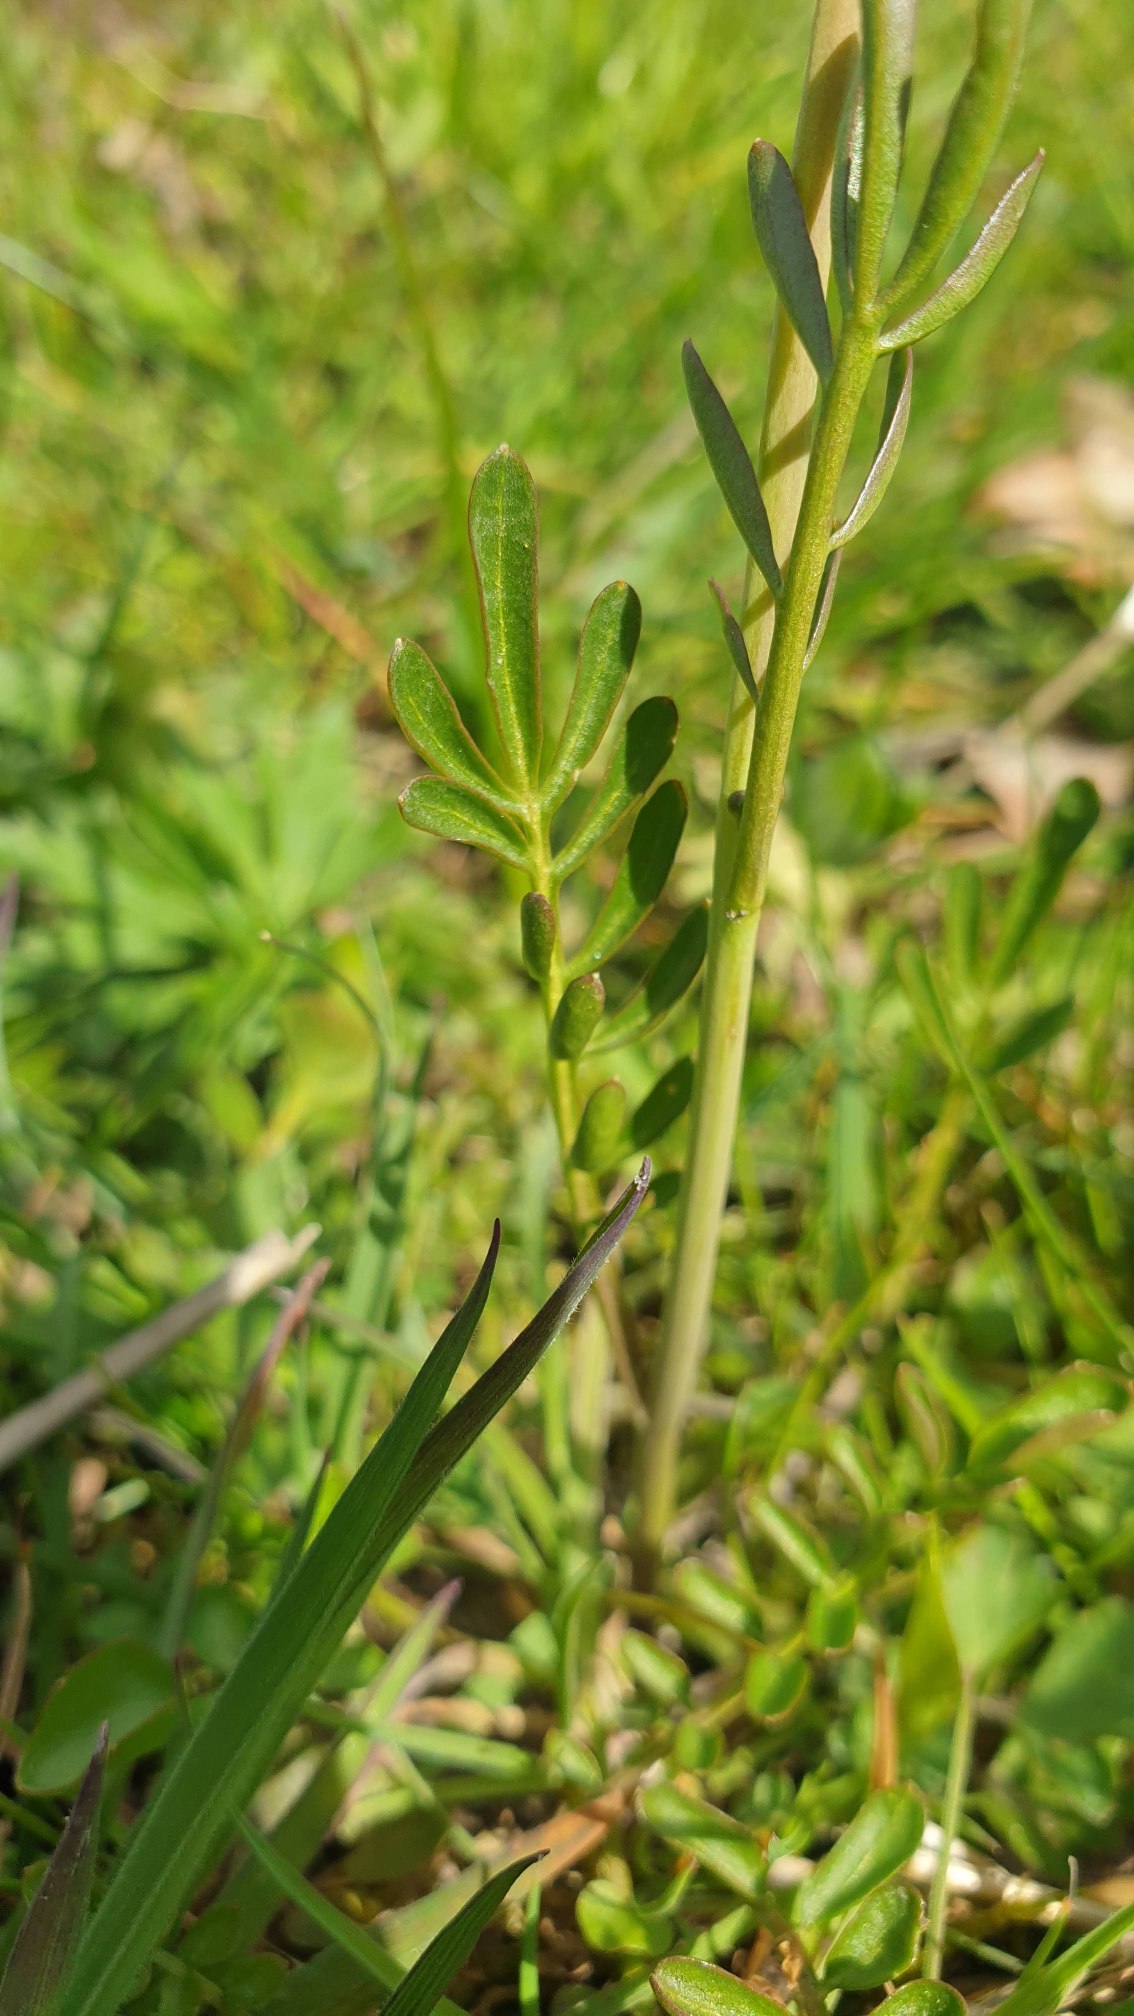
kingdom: Plantae
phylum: Tracheophyta
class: Magnoliopsida
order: Brassicales
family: Brassicaceae
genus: Cardamine
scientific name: Cardamine pratensis
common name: Engkarse
